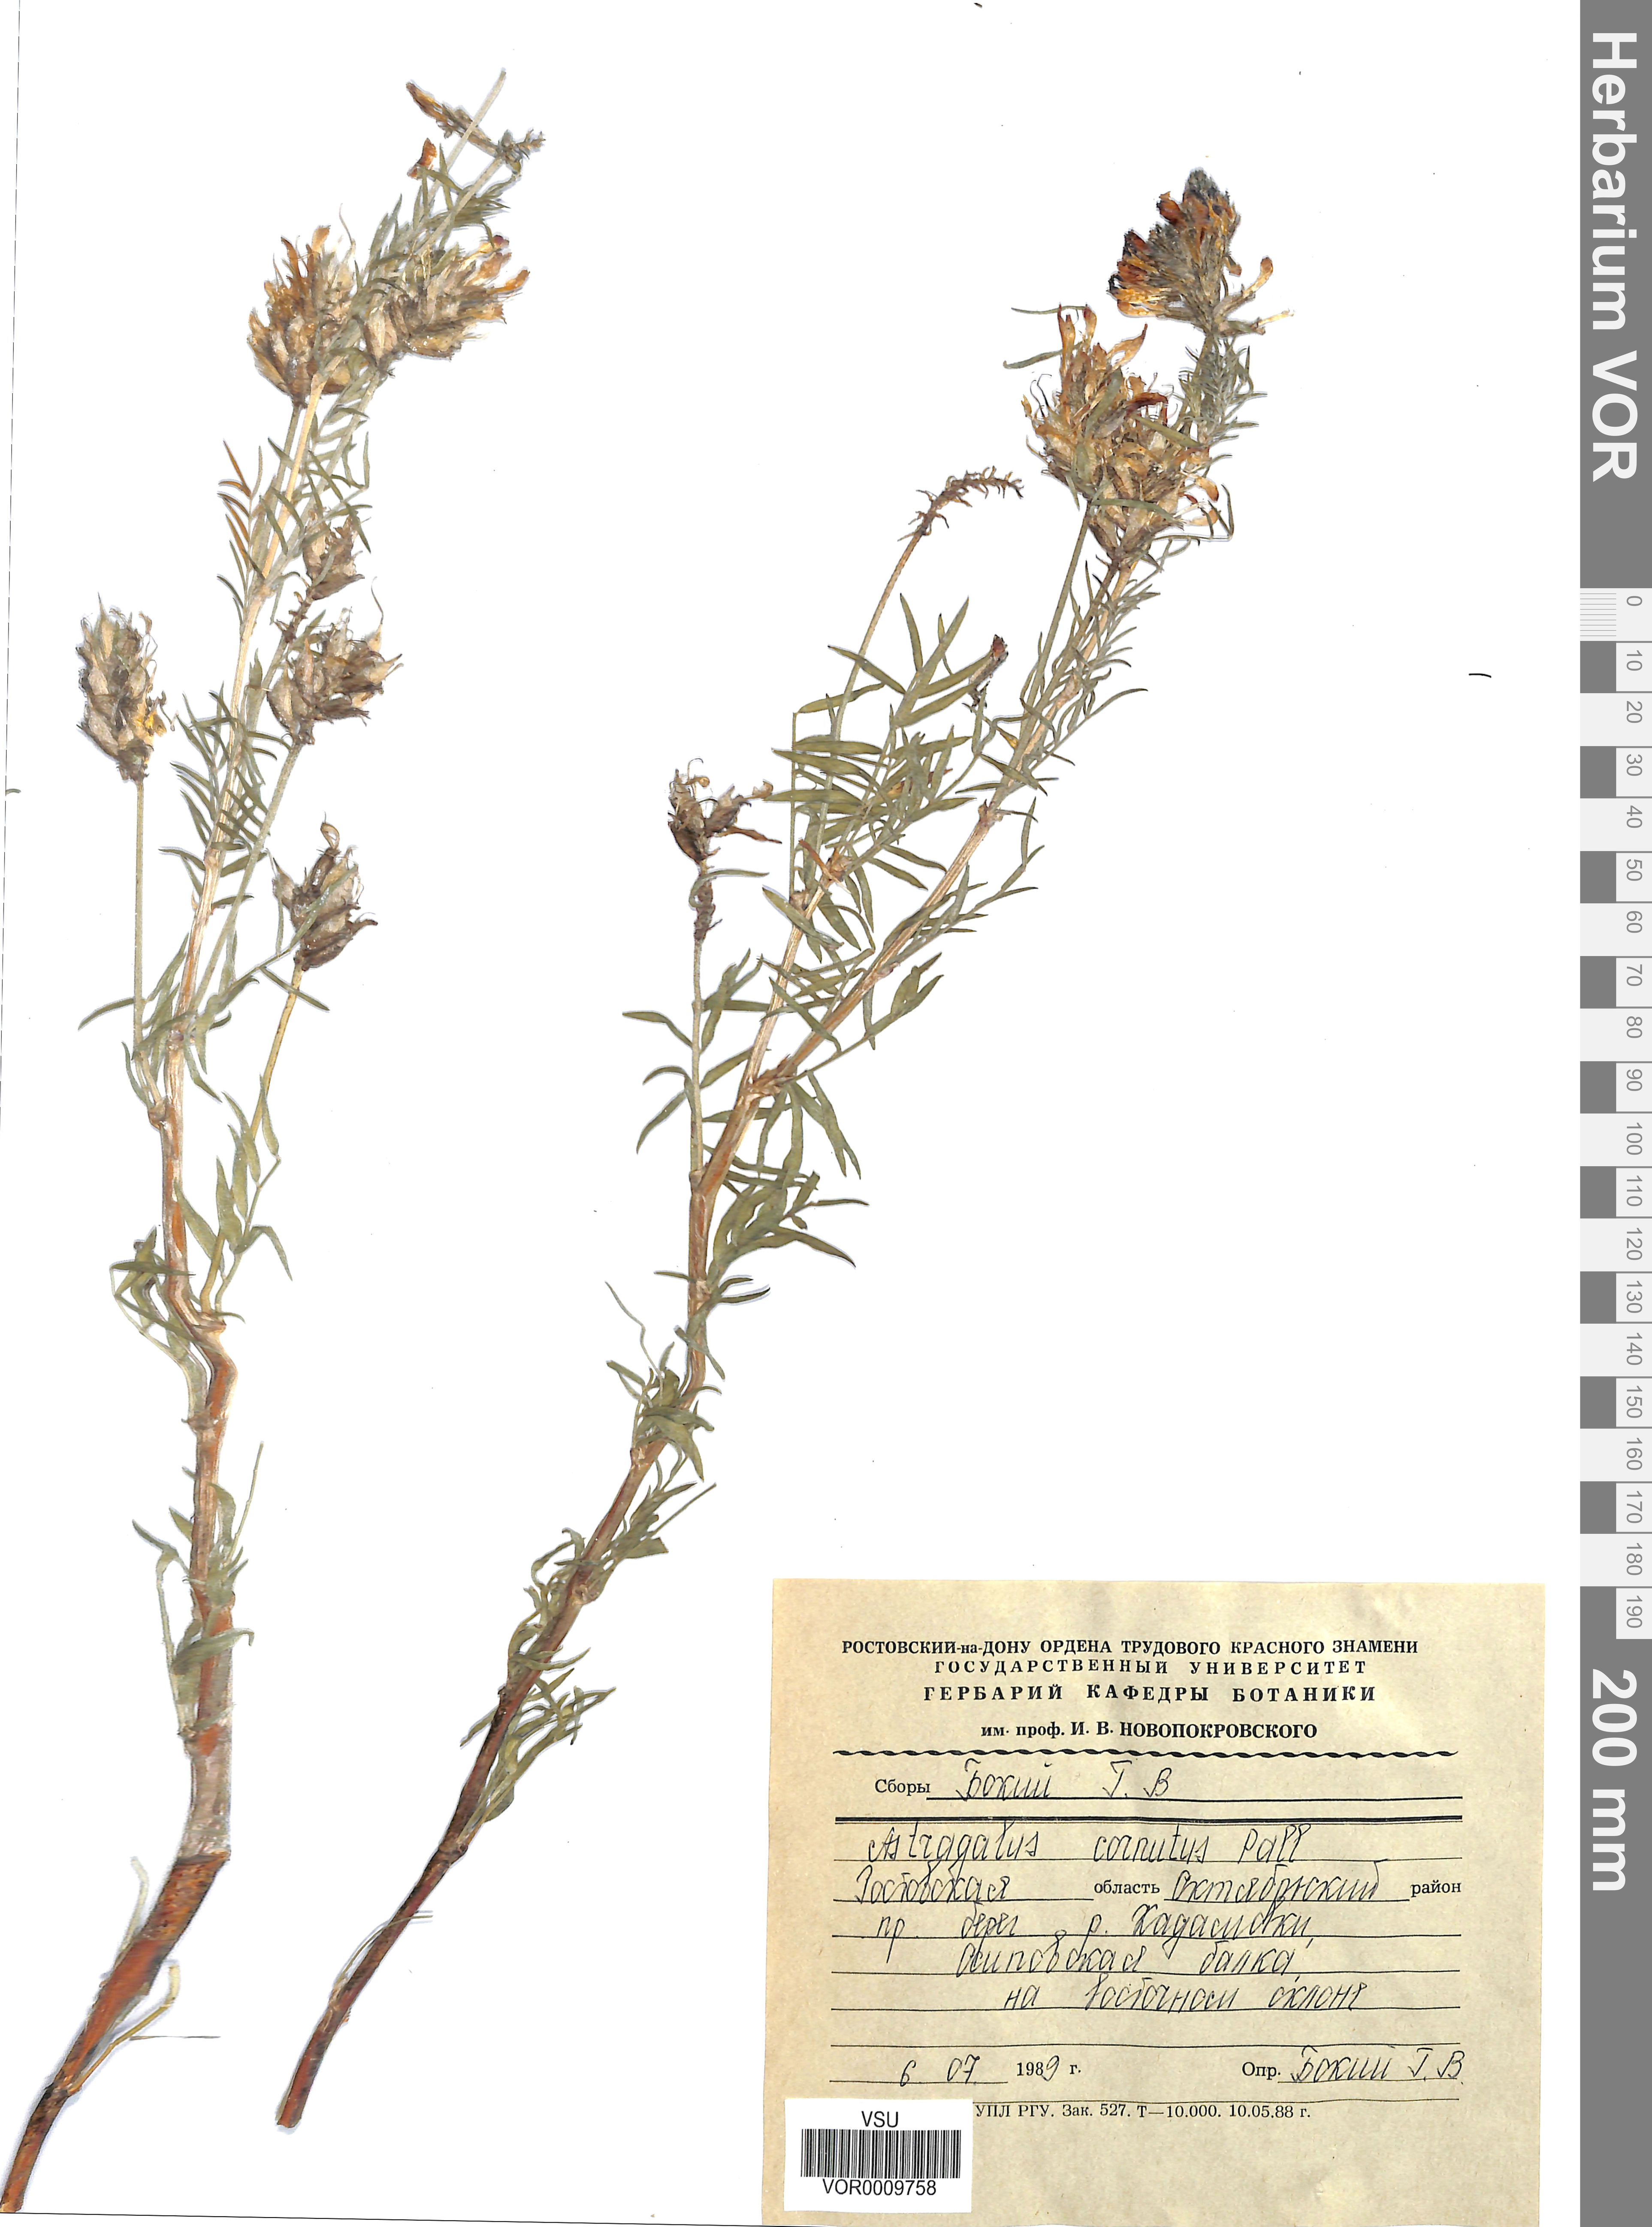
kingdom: Plantae
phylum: Tracheophyta
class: Magnoliopsida
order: Fabales
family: Fabaceae
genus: Astragalus
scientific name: Astragalus cornutus
